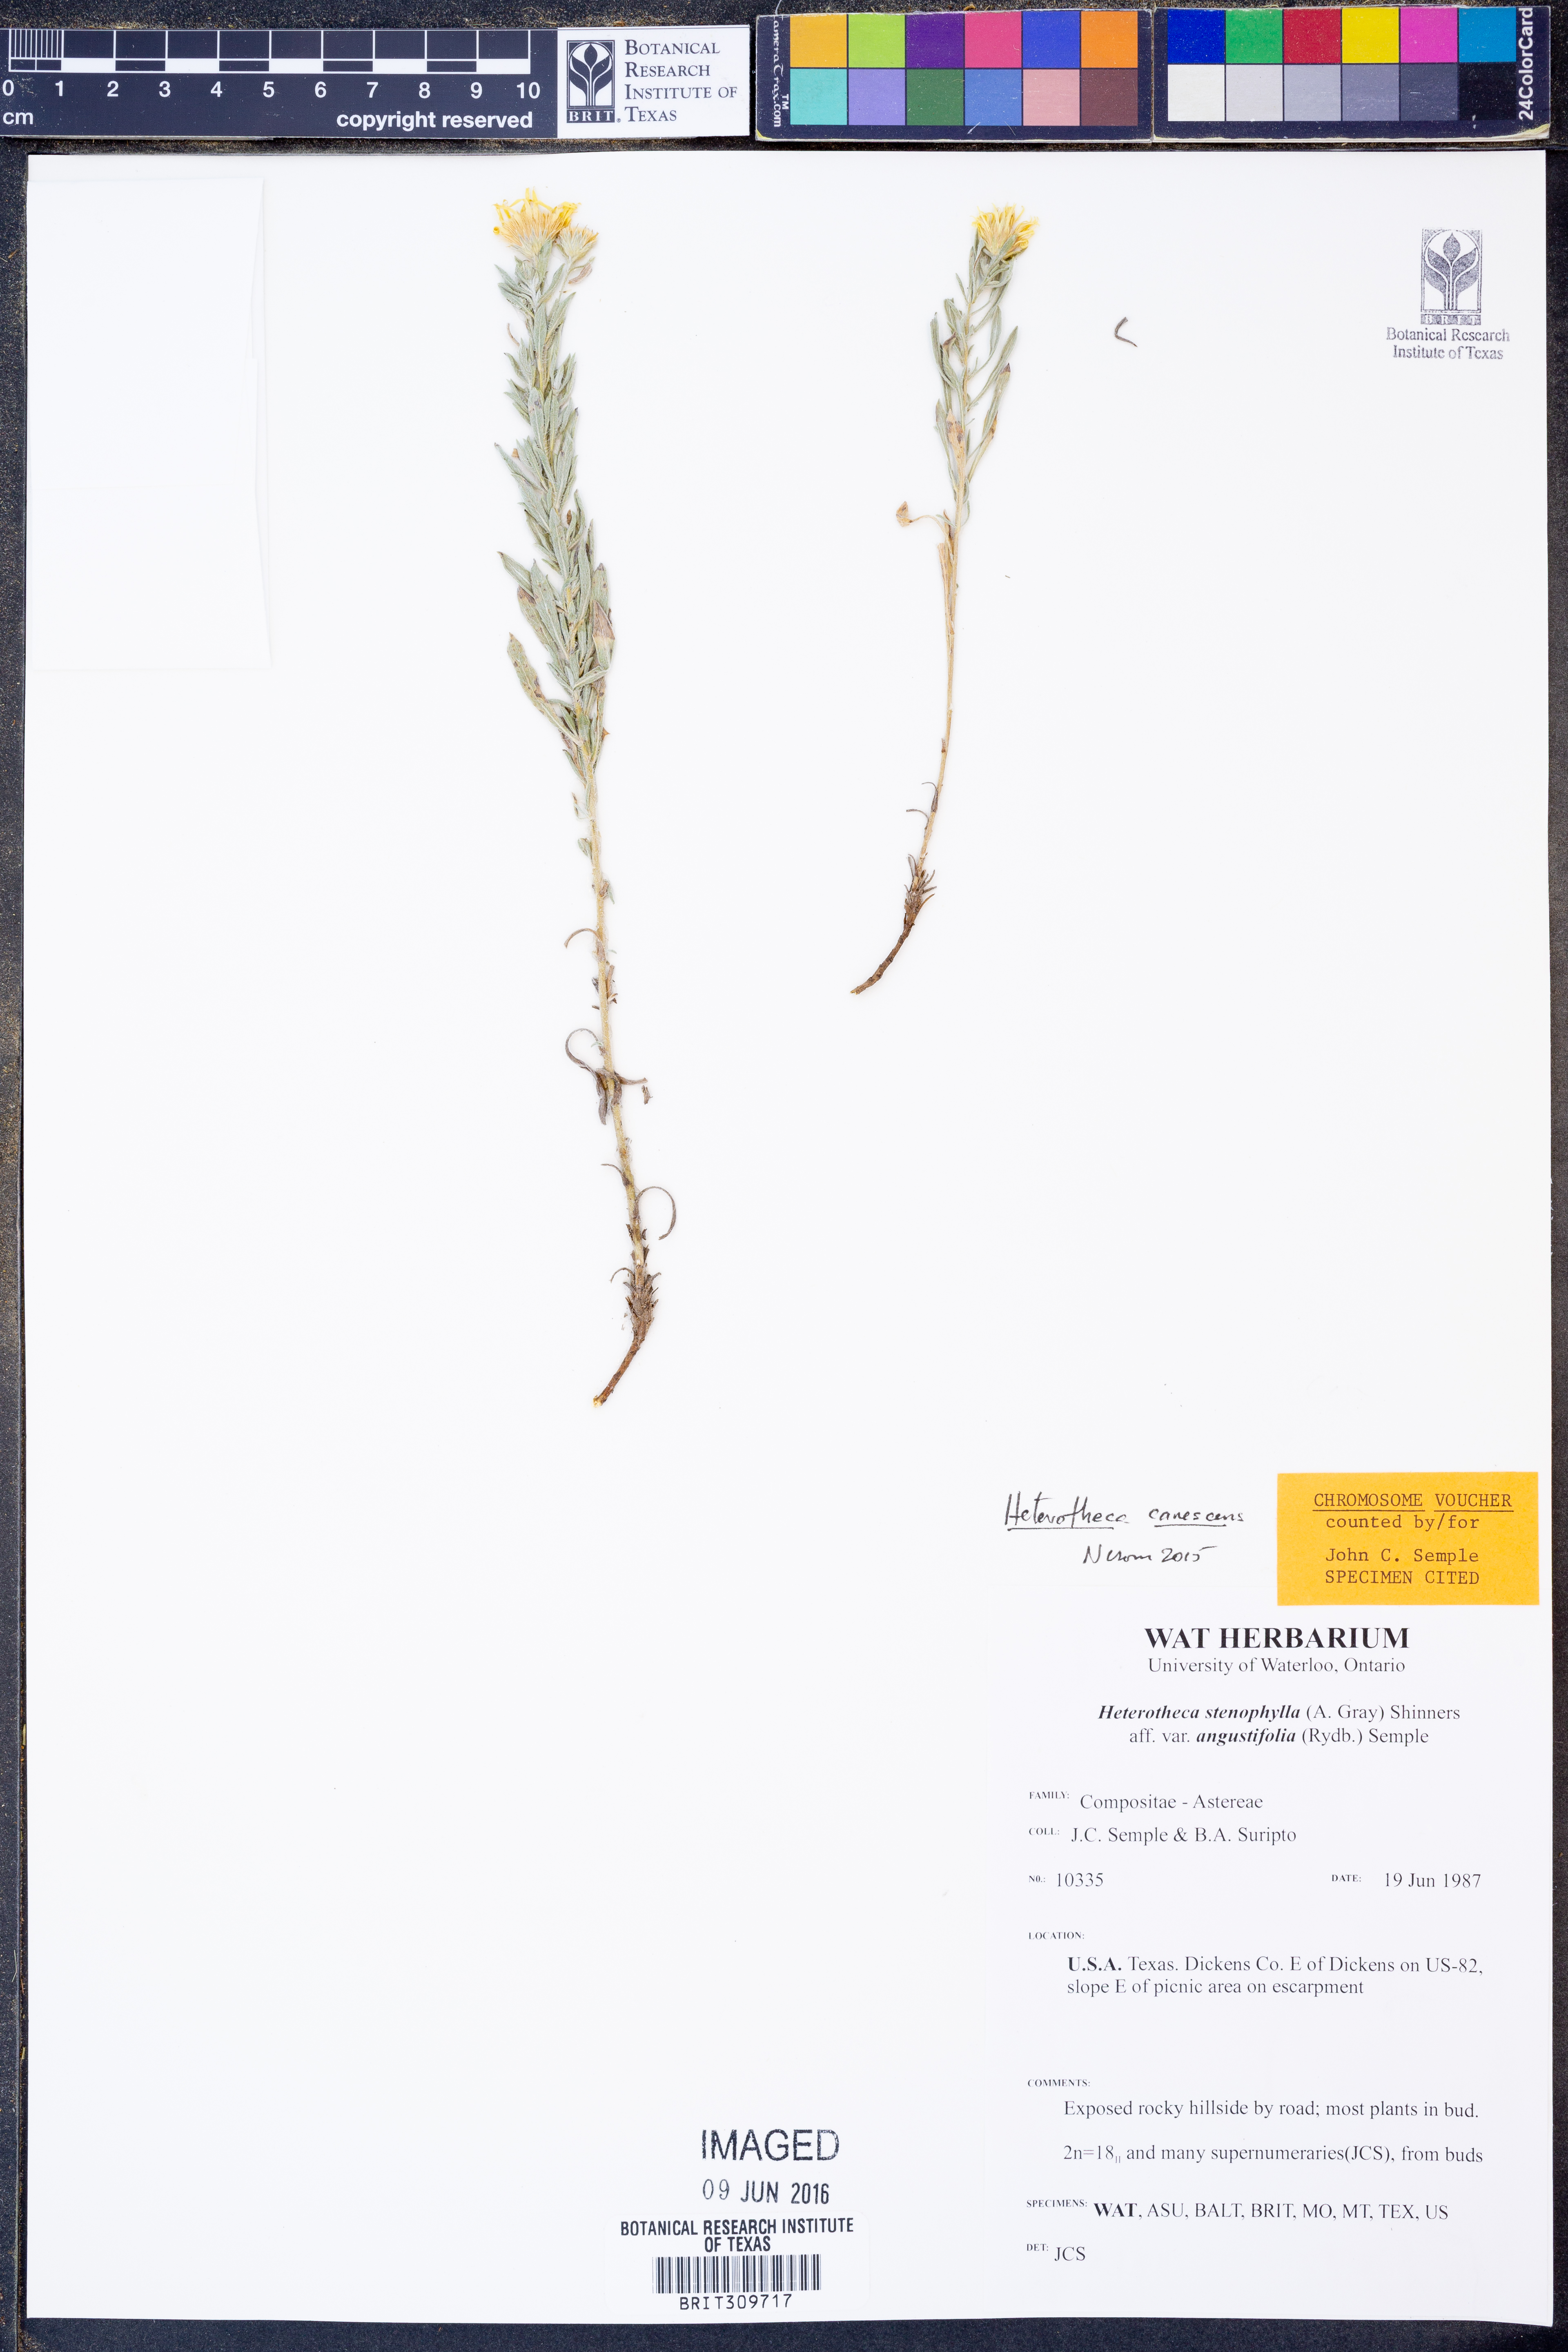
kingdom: Plantae
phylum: Tracheophyta
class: Magnoliopsida
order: Asterales
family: Asteraceae
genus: Heterotheca
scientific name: Heterotheca canescens
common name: Hoary golden-aster
